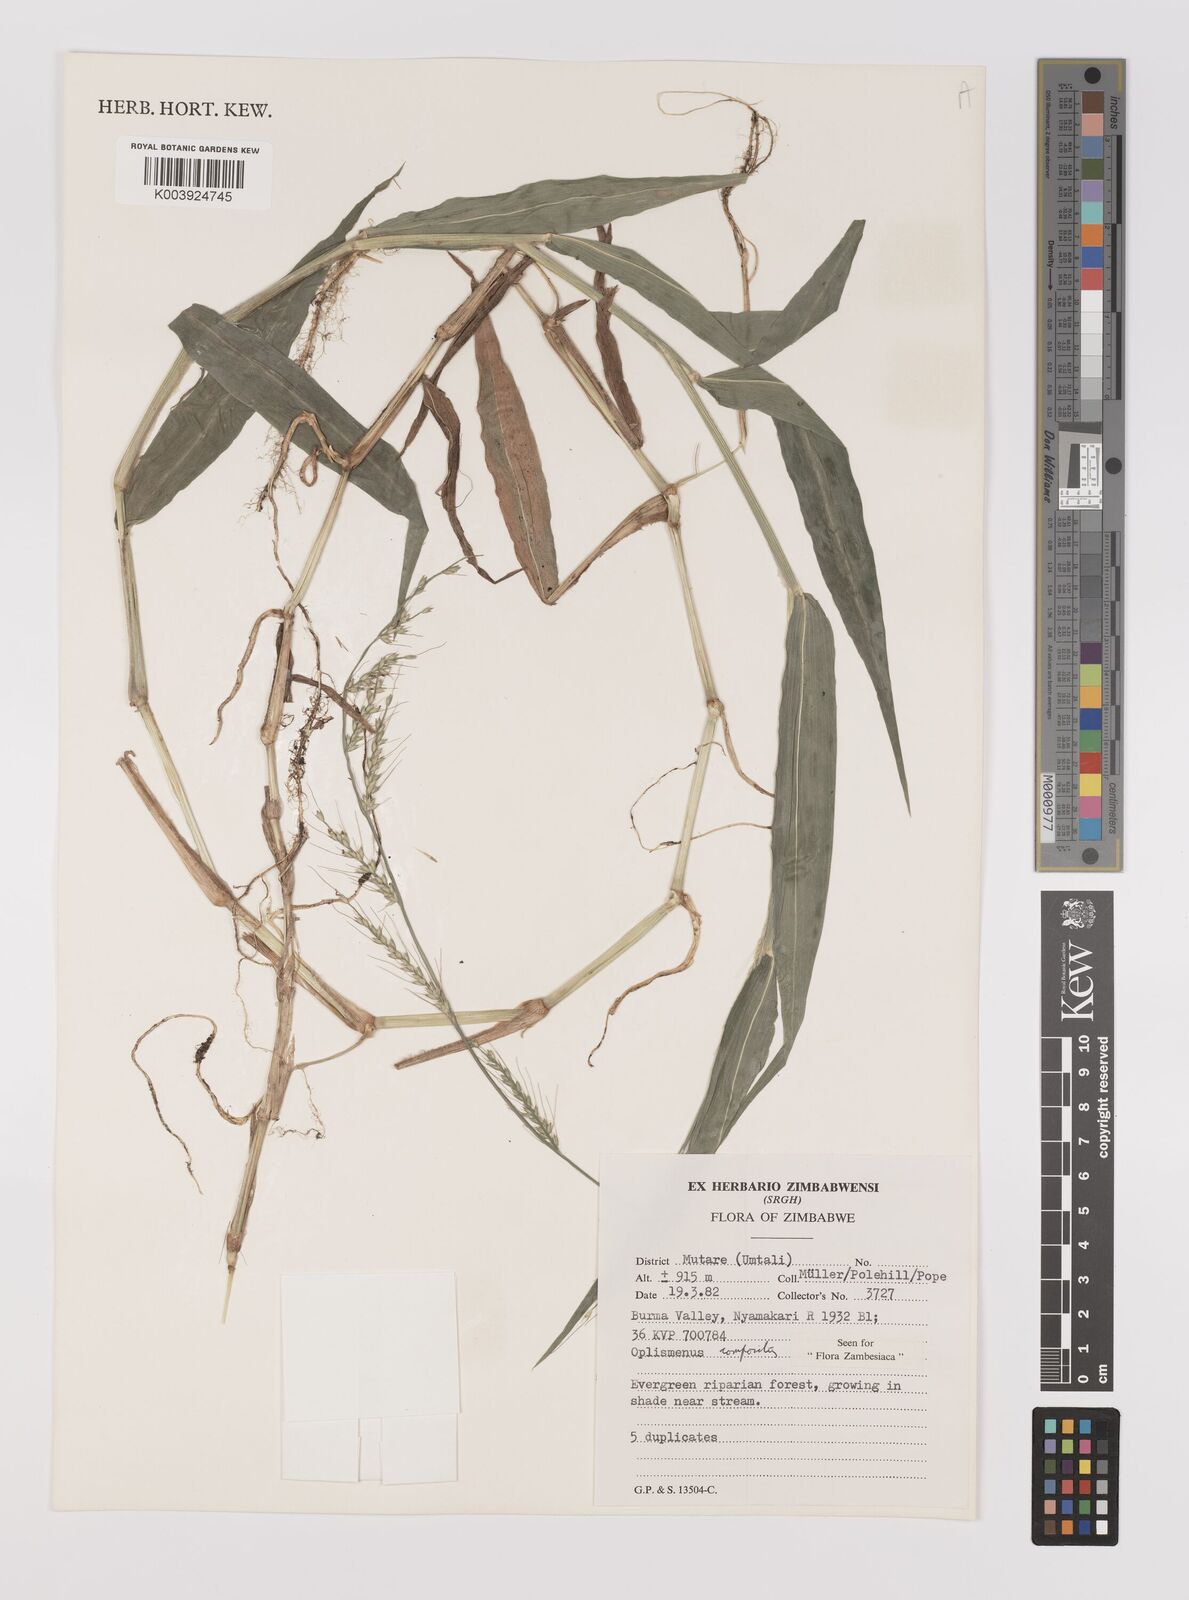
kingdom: Plantae
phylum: Tracheophyta
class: Liliopsida
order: Poales
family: Poaceae
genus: Oplismenus
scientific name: Oplismenus compositus
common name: Running mountain grass
